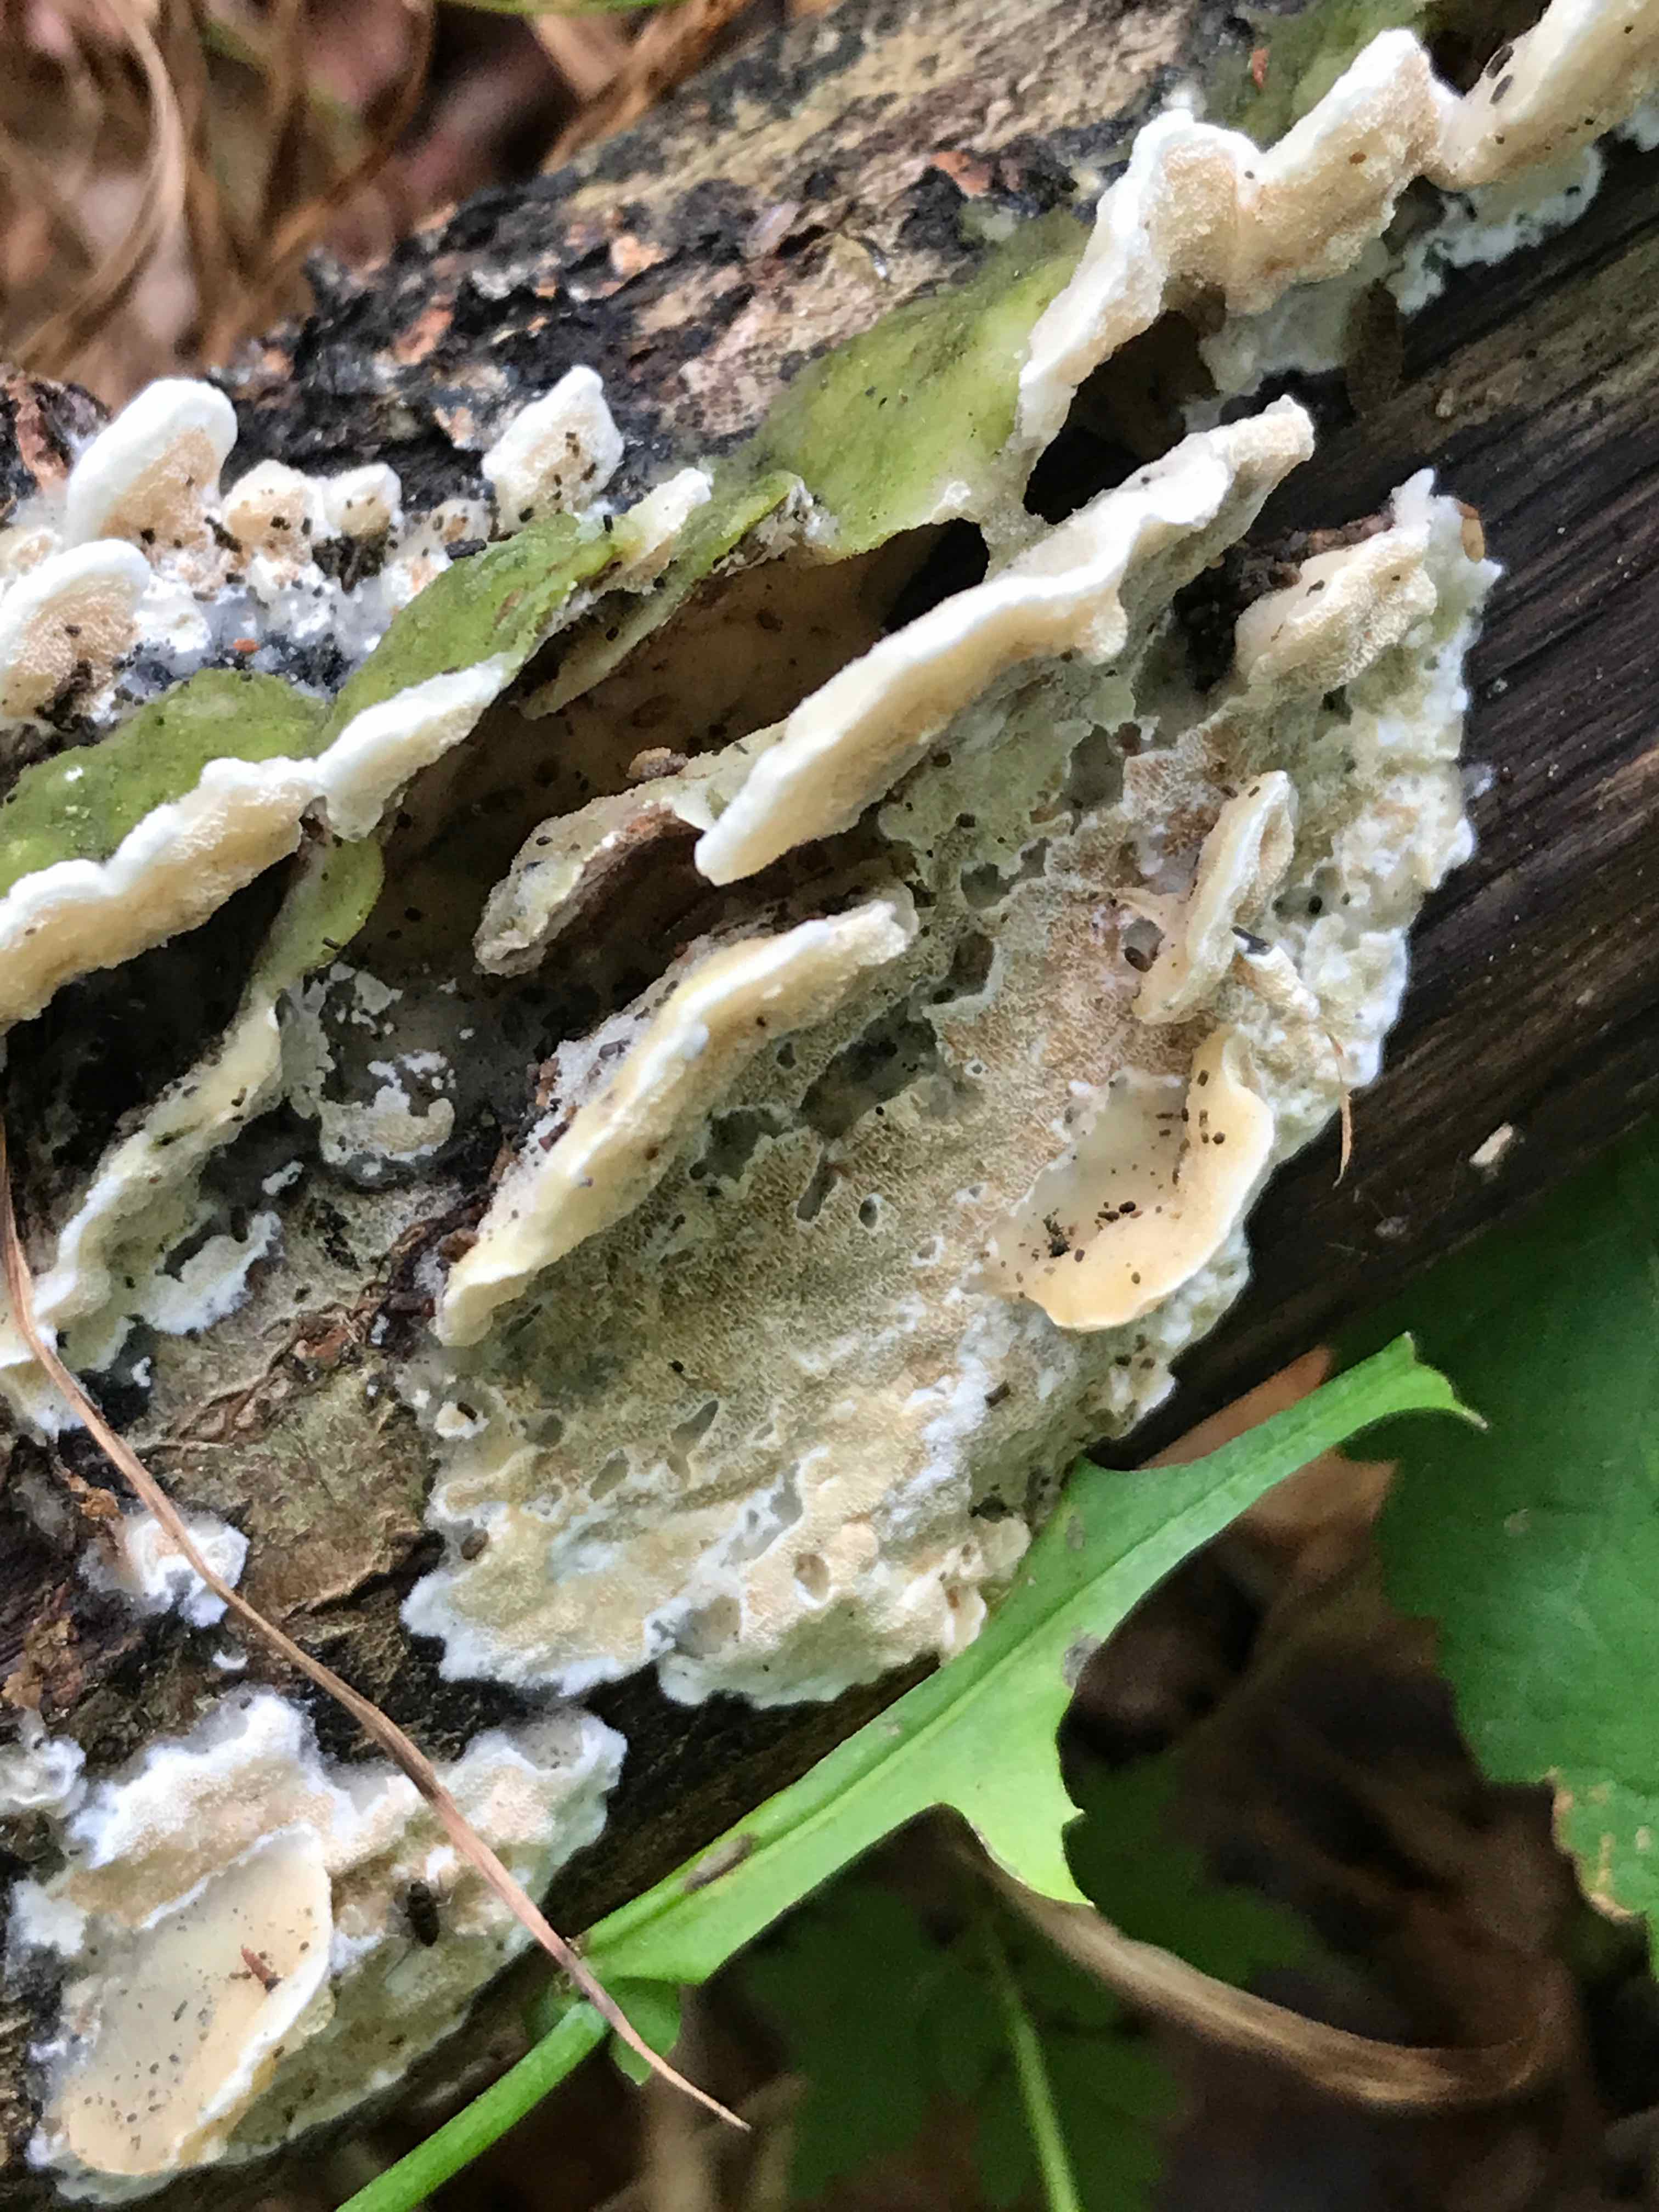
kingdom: Fungi
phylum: Basidiomycota
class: Agaricomycetes
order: Hymenochaetales
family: Oxyporaceae
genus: Oxyporus
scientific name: Oxyporus populinus
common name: sammenvokset trylleporesvamp
